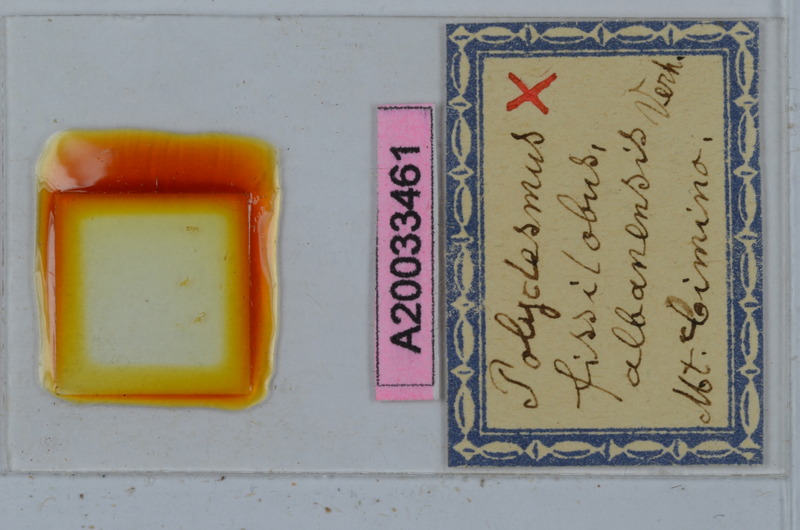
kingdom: Animalia
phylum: Arthropoda
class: Diplopoda
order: Polydesmida
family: Polydesmidae
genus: Polydesmus
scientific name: Polydesmus fissilobus
